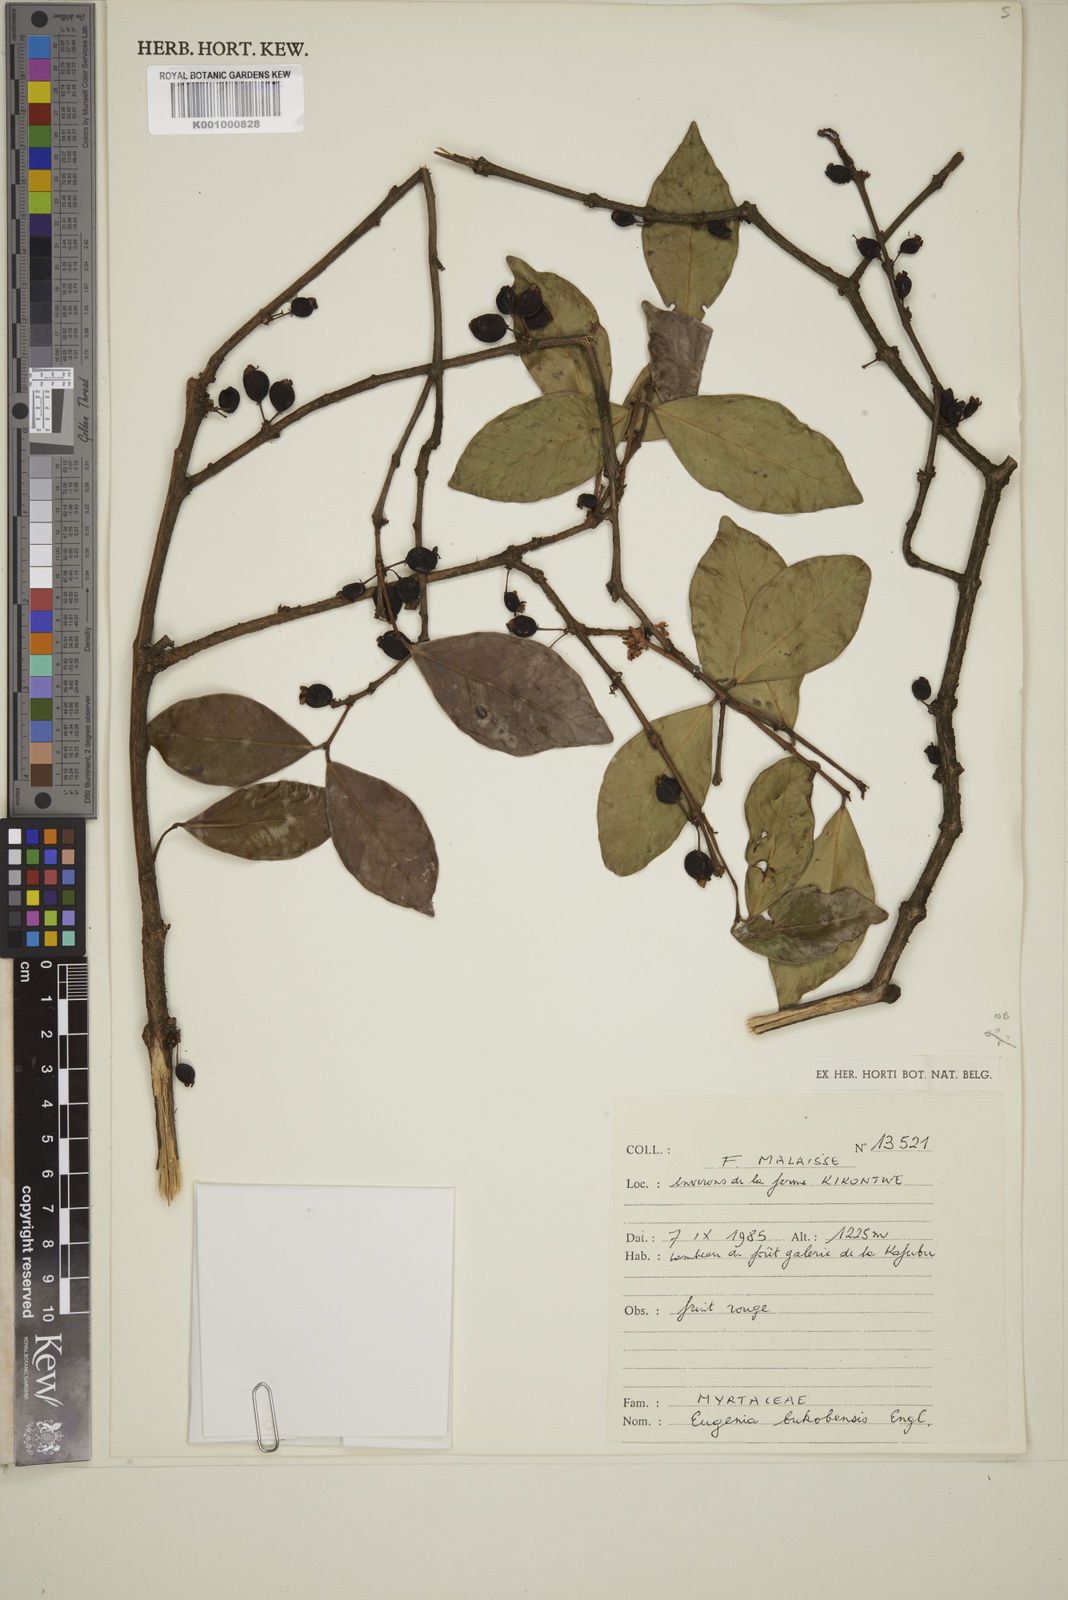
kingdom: Plantae
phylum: Tracheophyta
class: Magnoliopsida
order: Myrtales
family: Myrtaceae
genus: Eugenia
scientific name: Eugenia bukobensis
